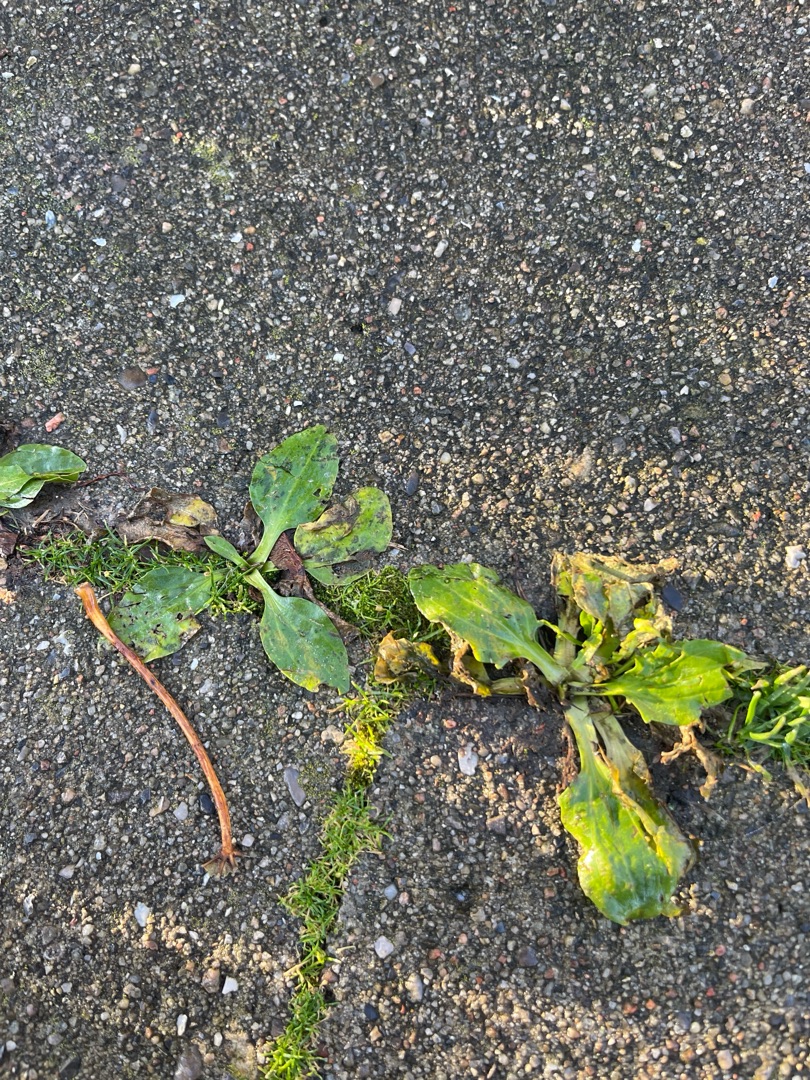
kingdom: Plantae
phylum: Tracheophyta
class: Magnoliopsida
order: Lamiales
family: Plantaginaceae
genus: Plantago
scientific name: Plantago major
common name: Glat vejbred
